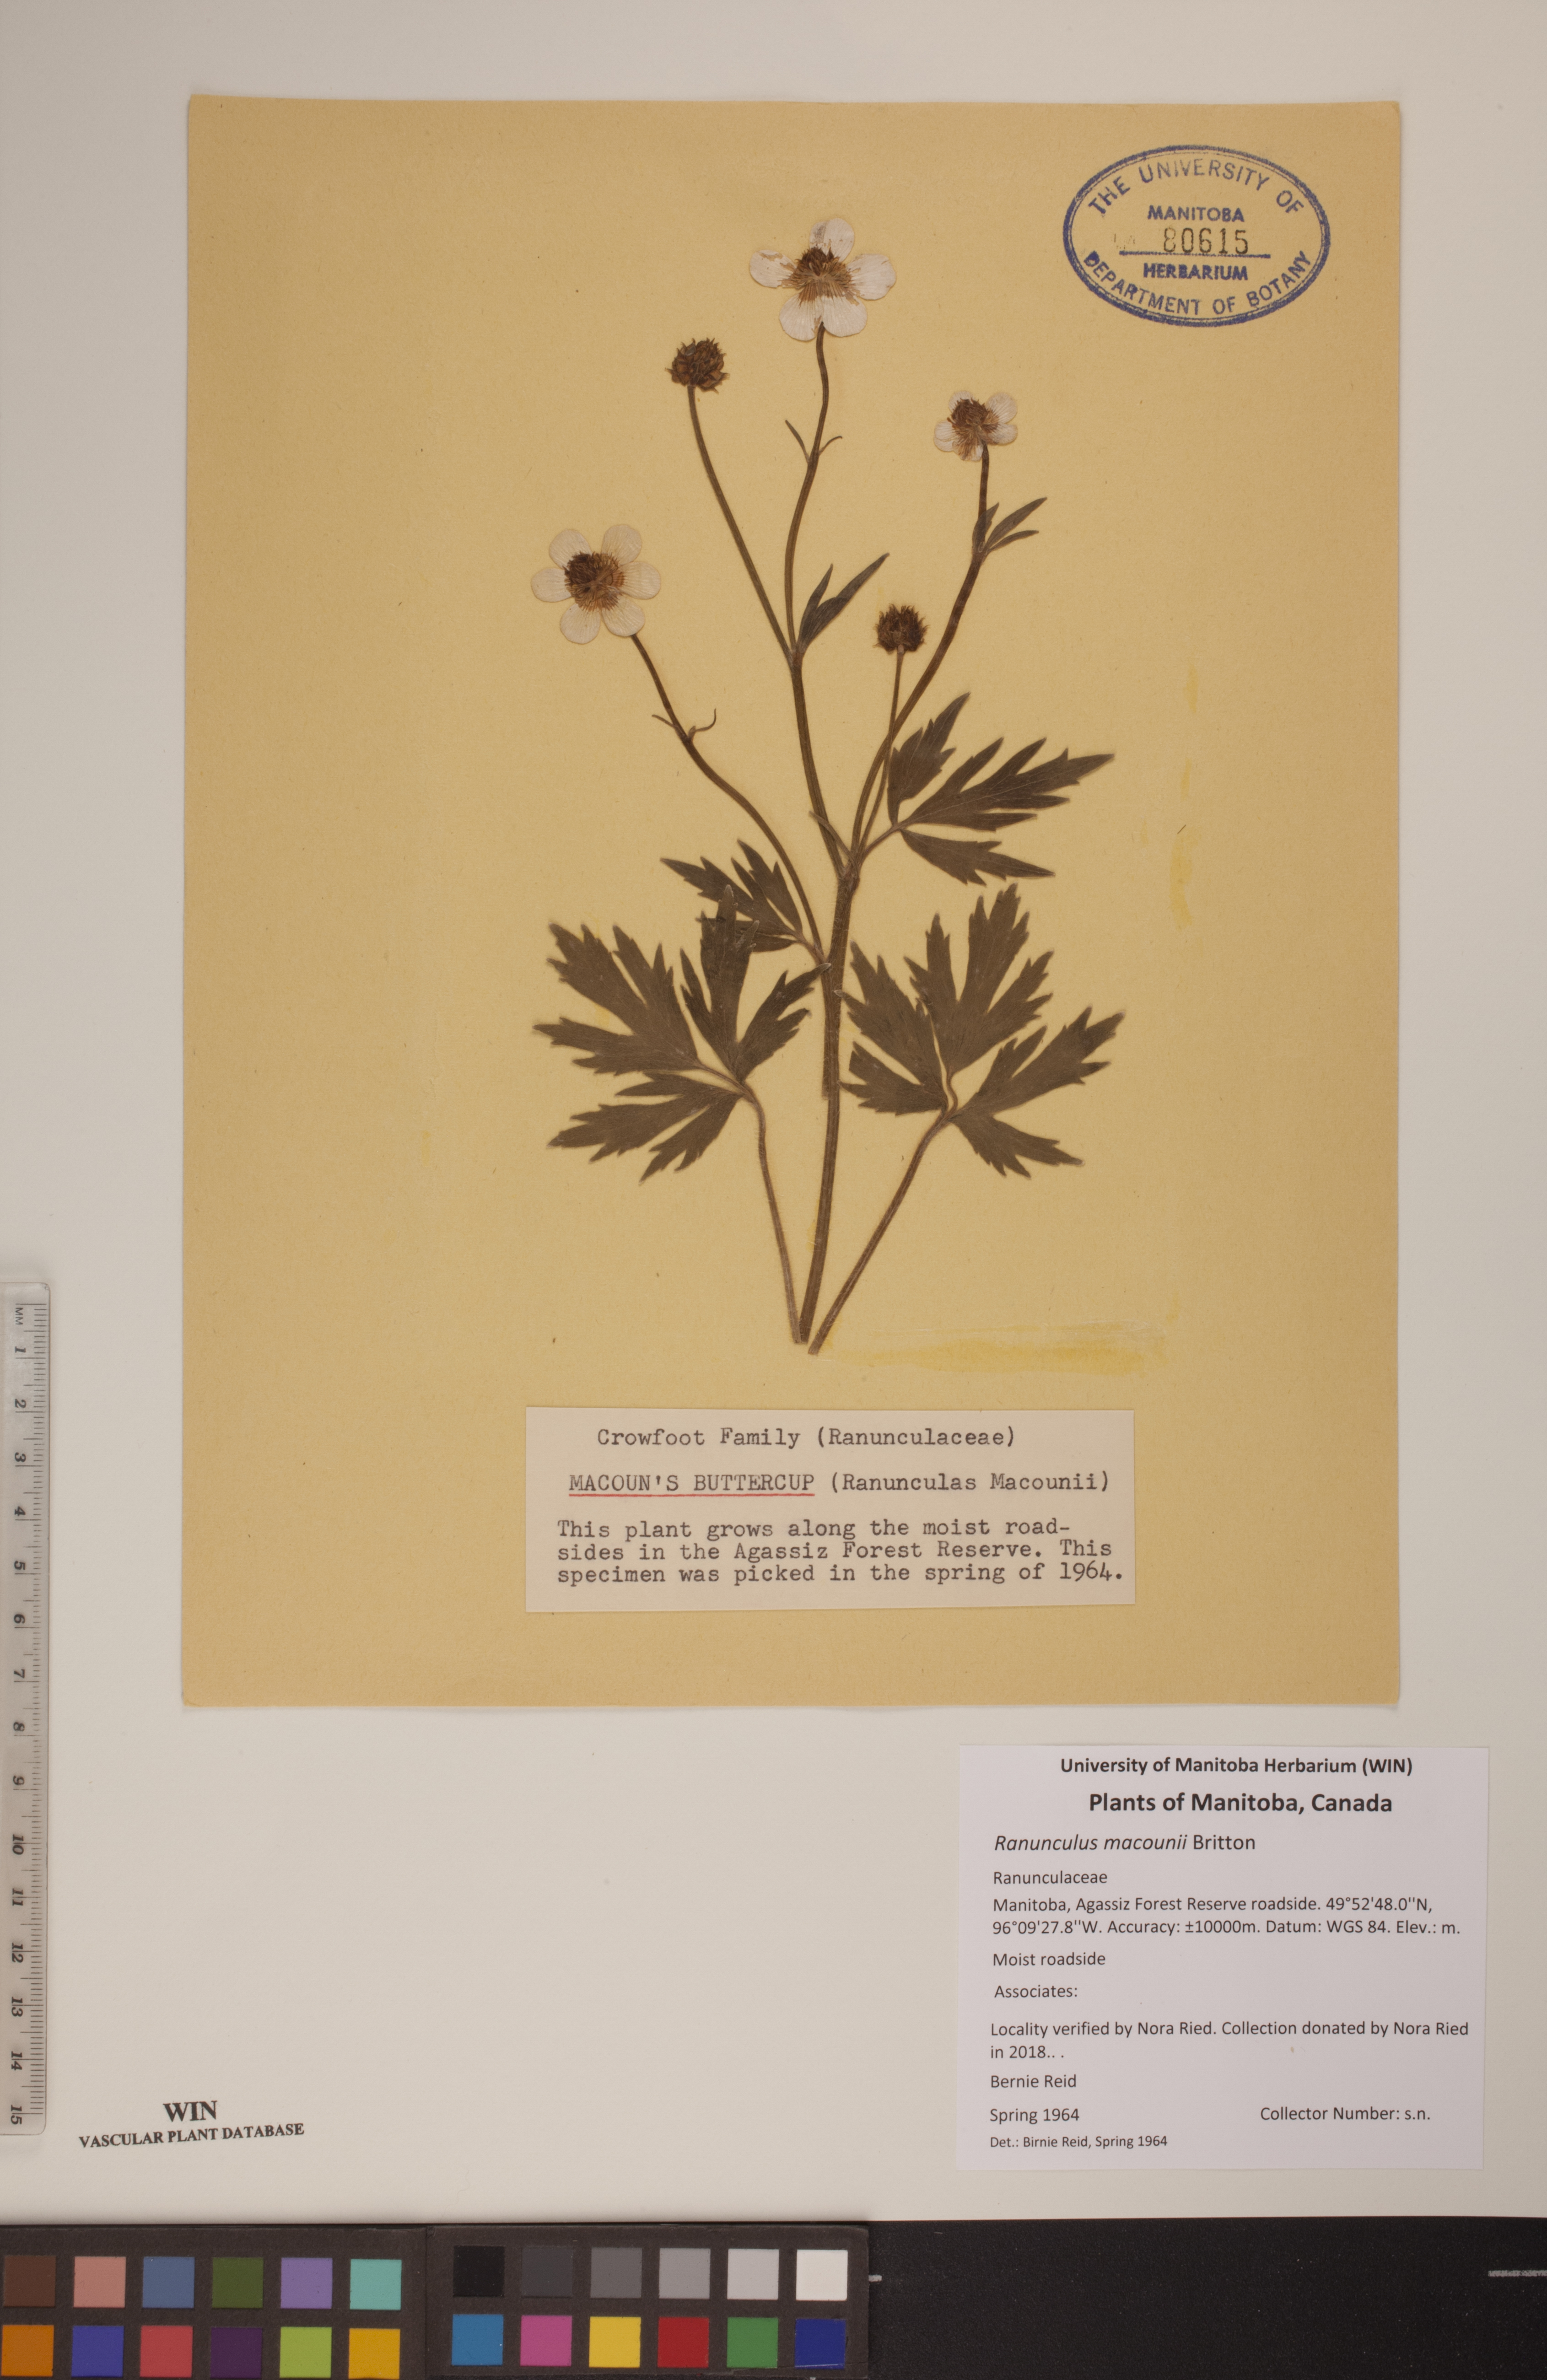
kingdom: Plantae
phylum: Tracheophyta
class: Magnoliopsida
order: Ranunculales
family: Ranunculaceae
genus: Ranunculus
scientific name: Ranunculus macounii
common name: Macoun's buttercup
